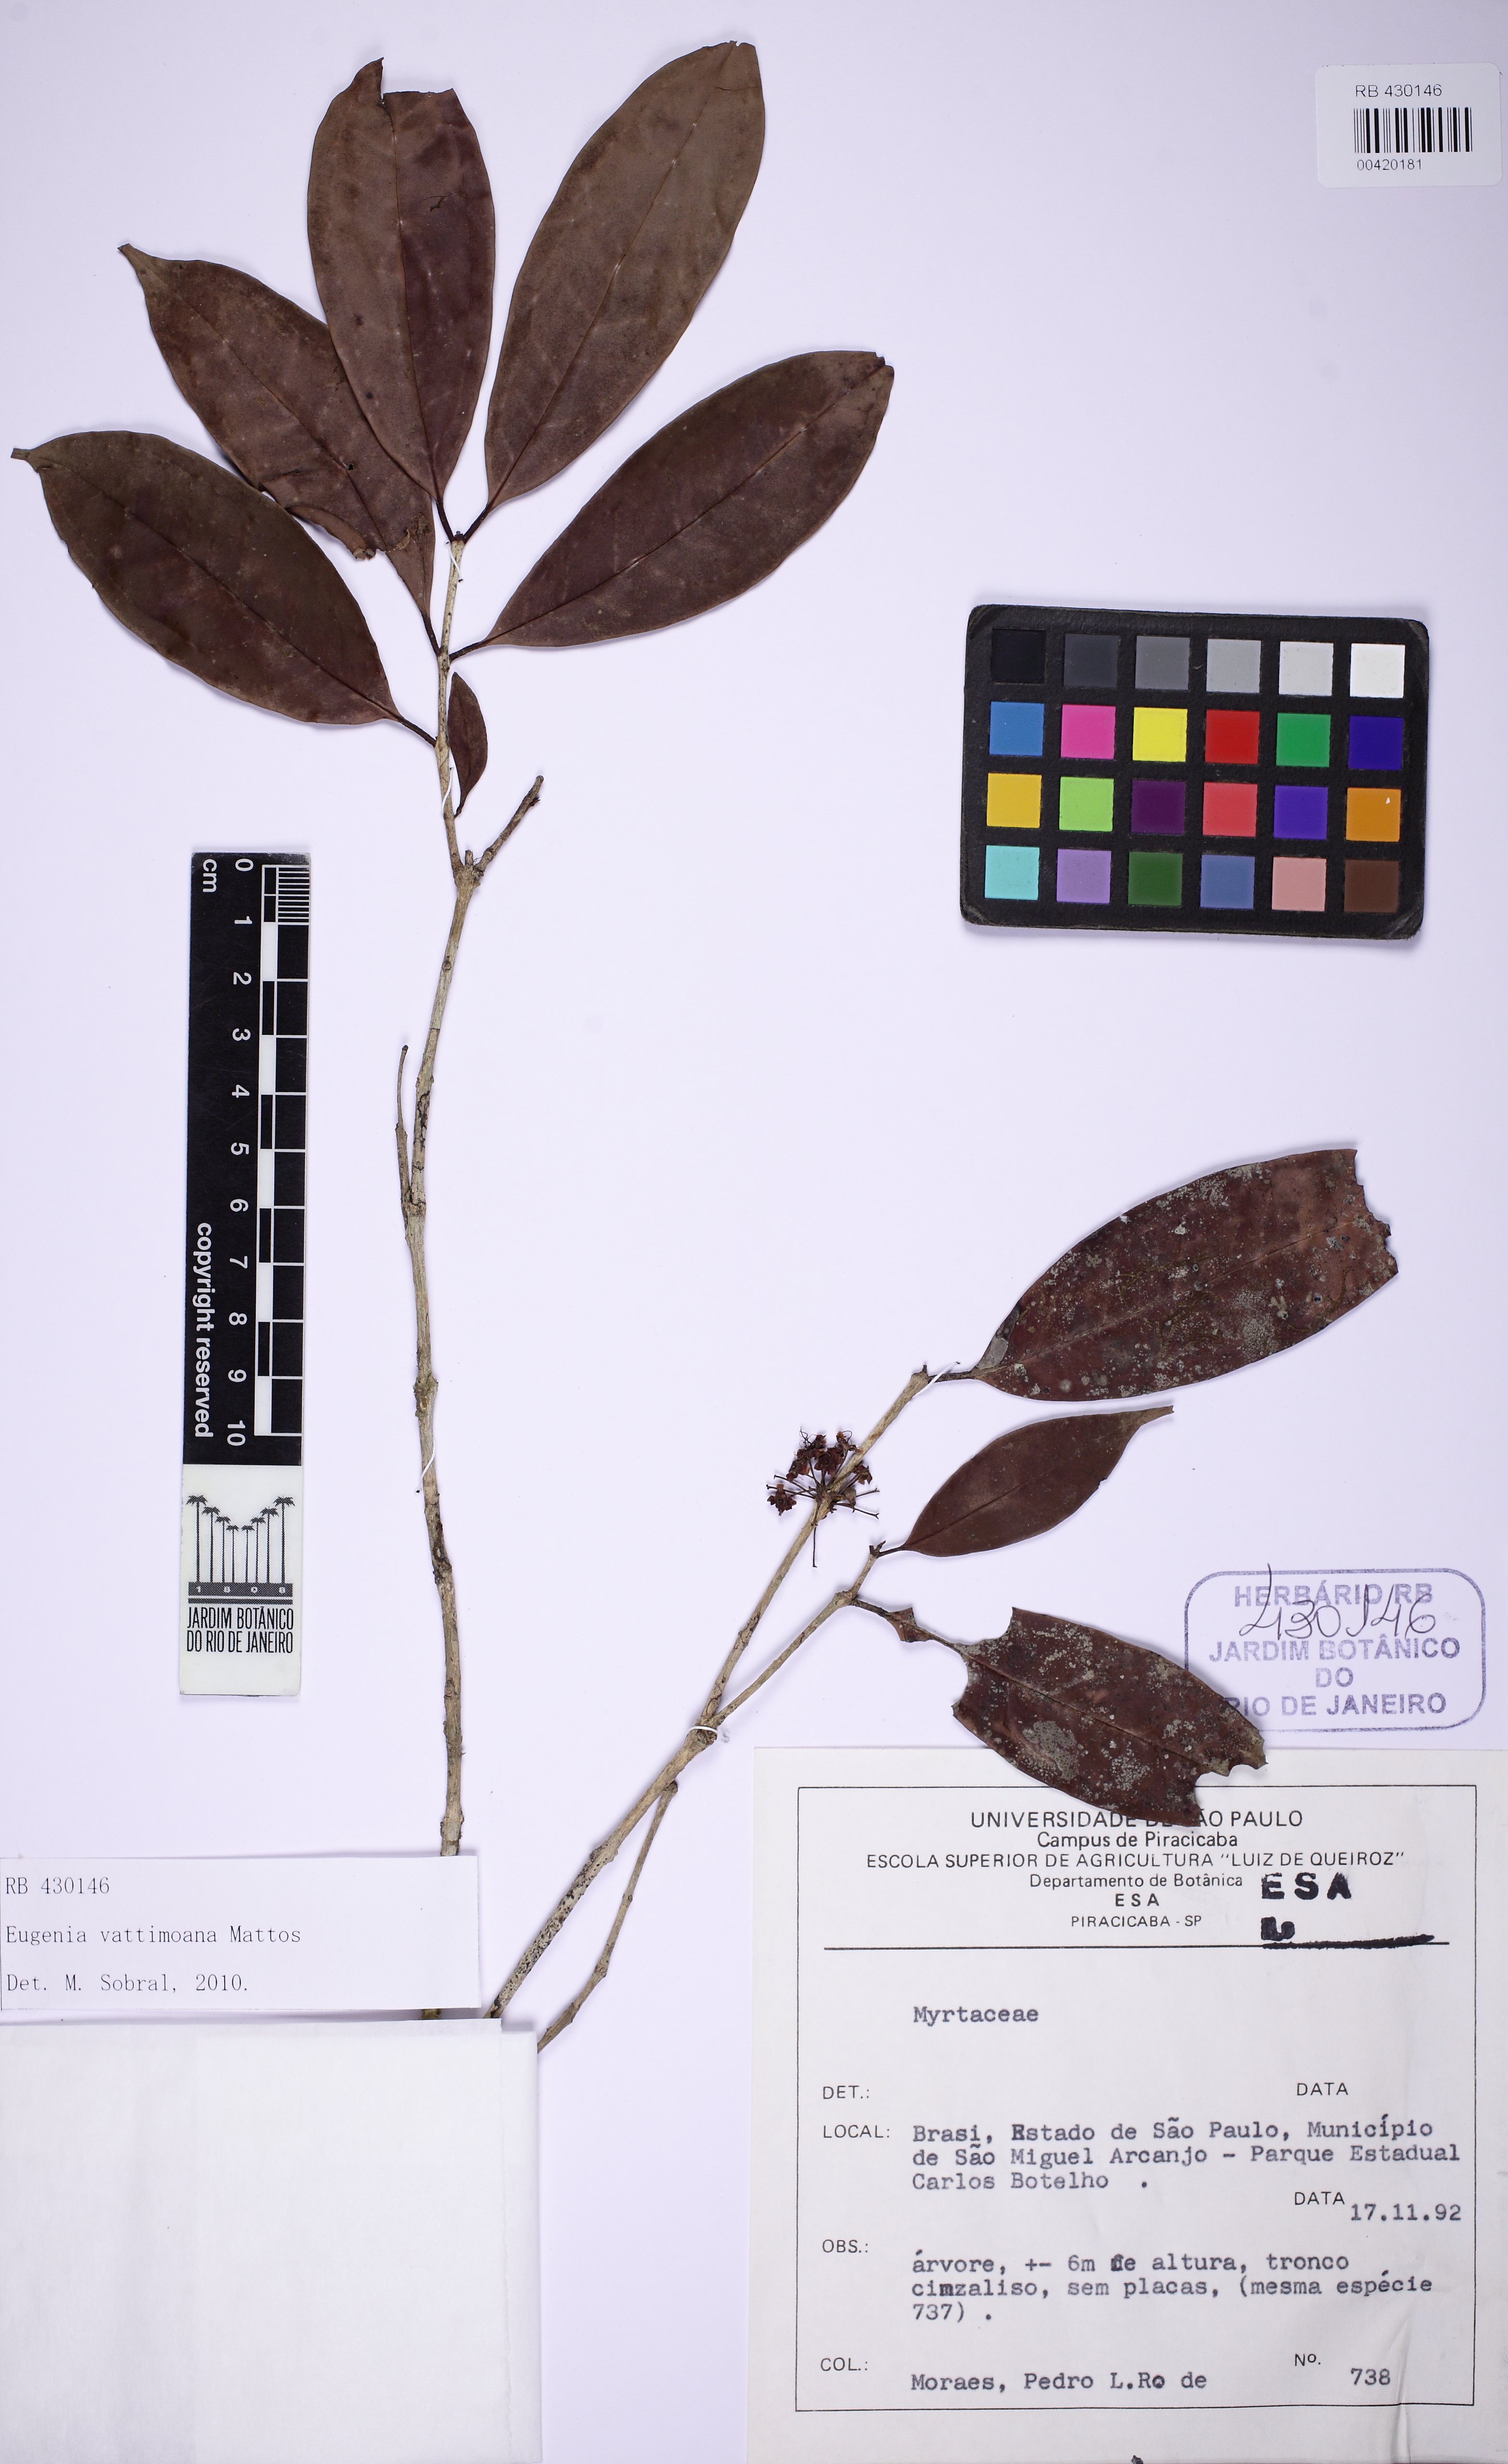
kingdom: Plantae
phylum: Tracheophyta
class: Magnoliopsida
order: Myrtales
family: Myrtaceae
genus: Eugenia
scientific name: Eugenia brevistyla
